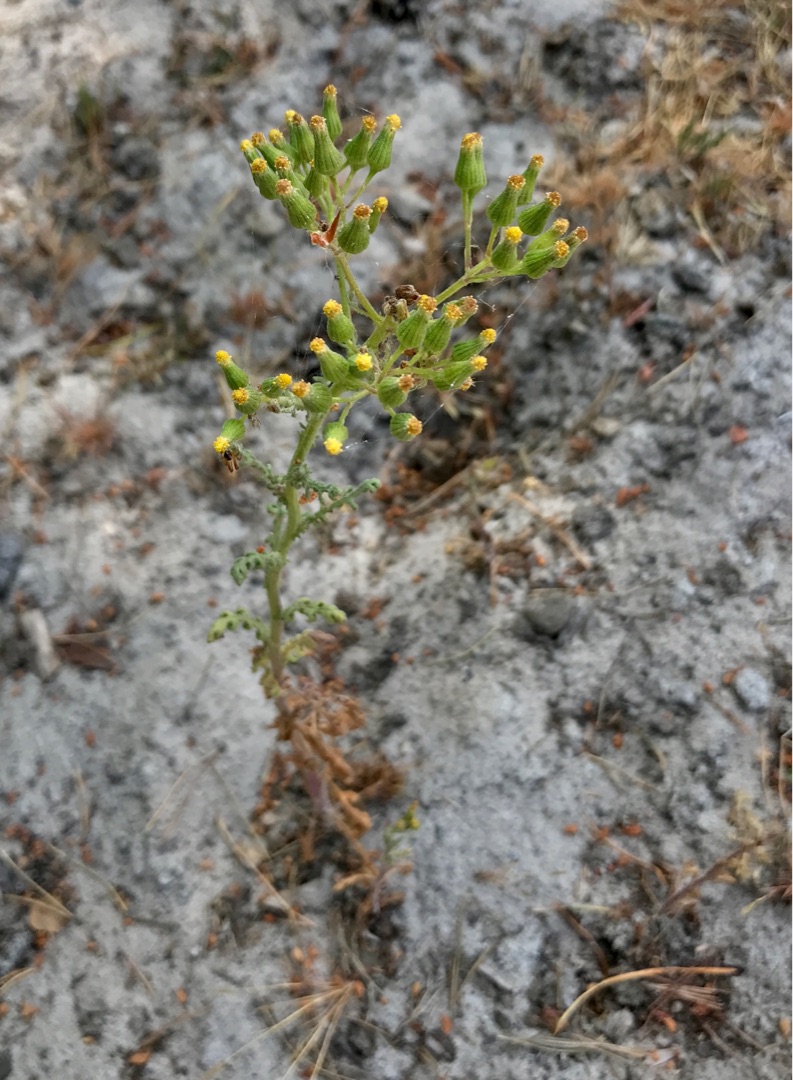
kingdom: Plantae
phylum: Tracheophyta
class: Magnoliopsida
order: Asterales
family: Asteraceae
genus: Senecio
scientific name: Senecio viscosus
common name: Klæbrig brandbæger
